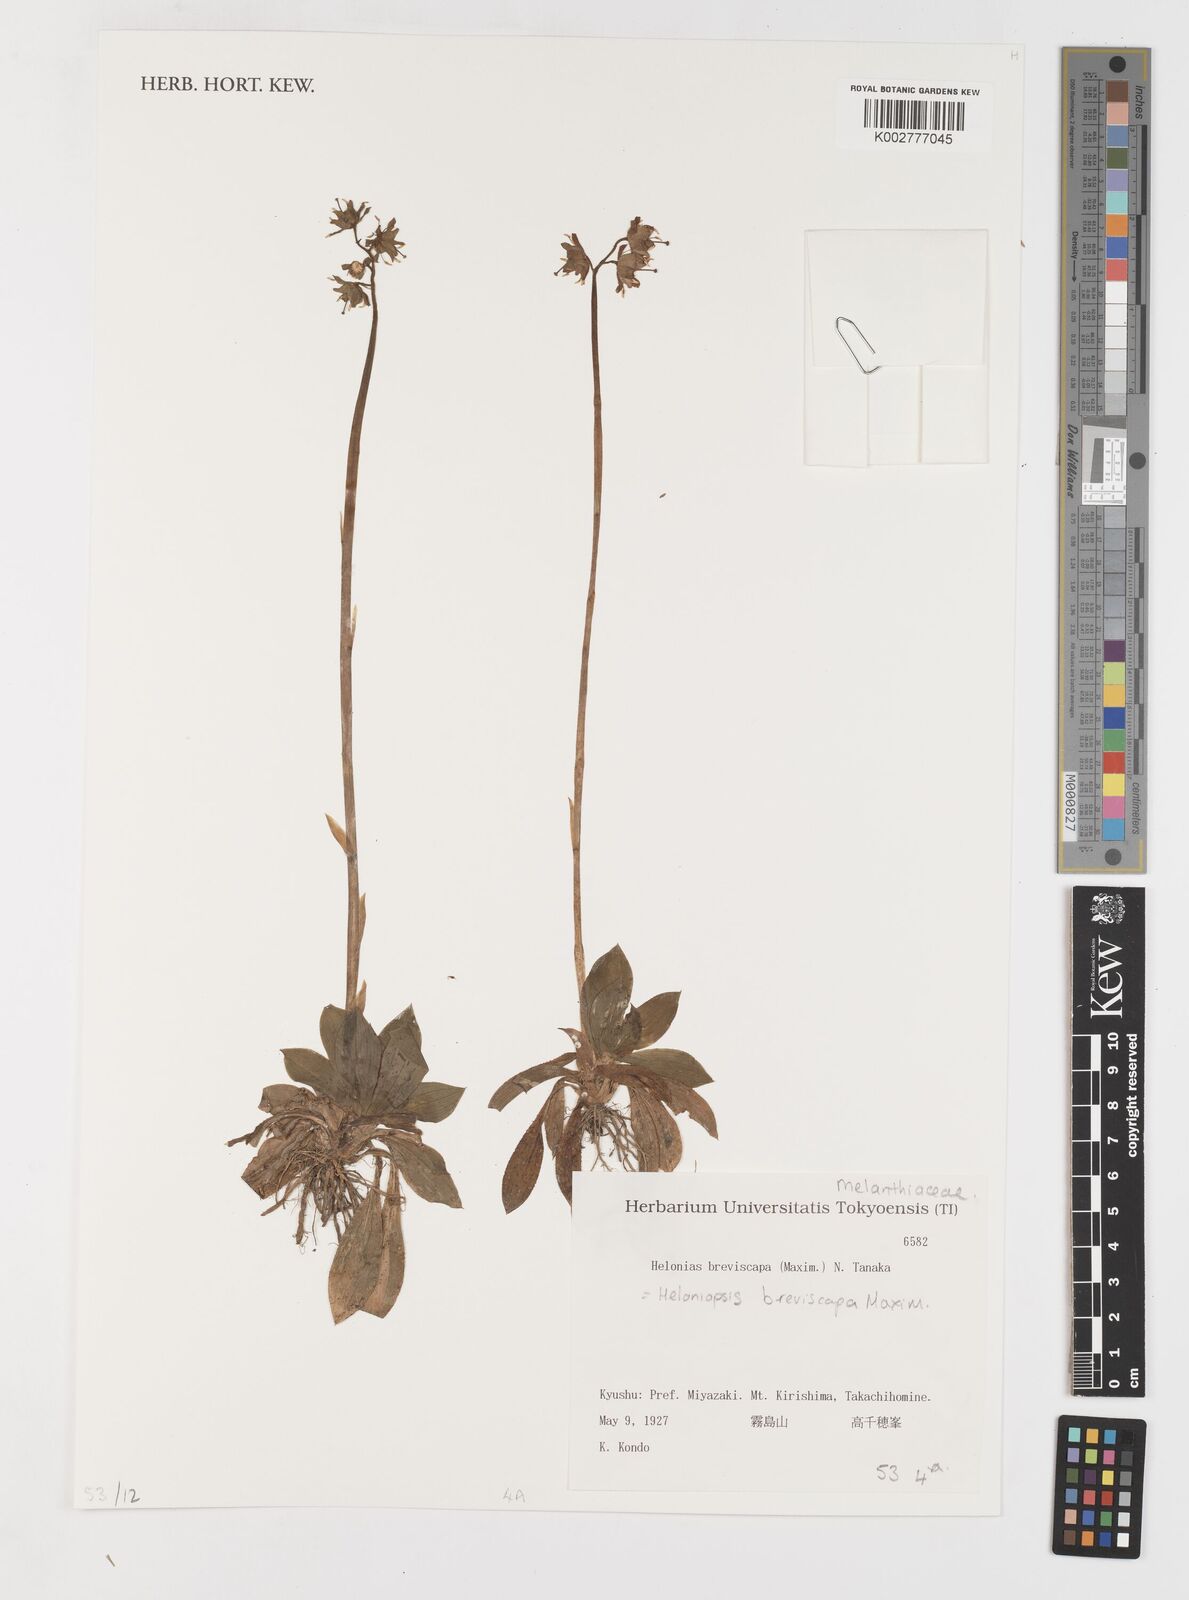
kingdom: Plantae
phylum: Tracheophyta
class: Liliopsida
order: Liliales
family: Melanthiaceae
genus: Helonias
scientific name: Helonias breviscapa
